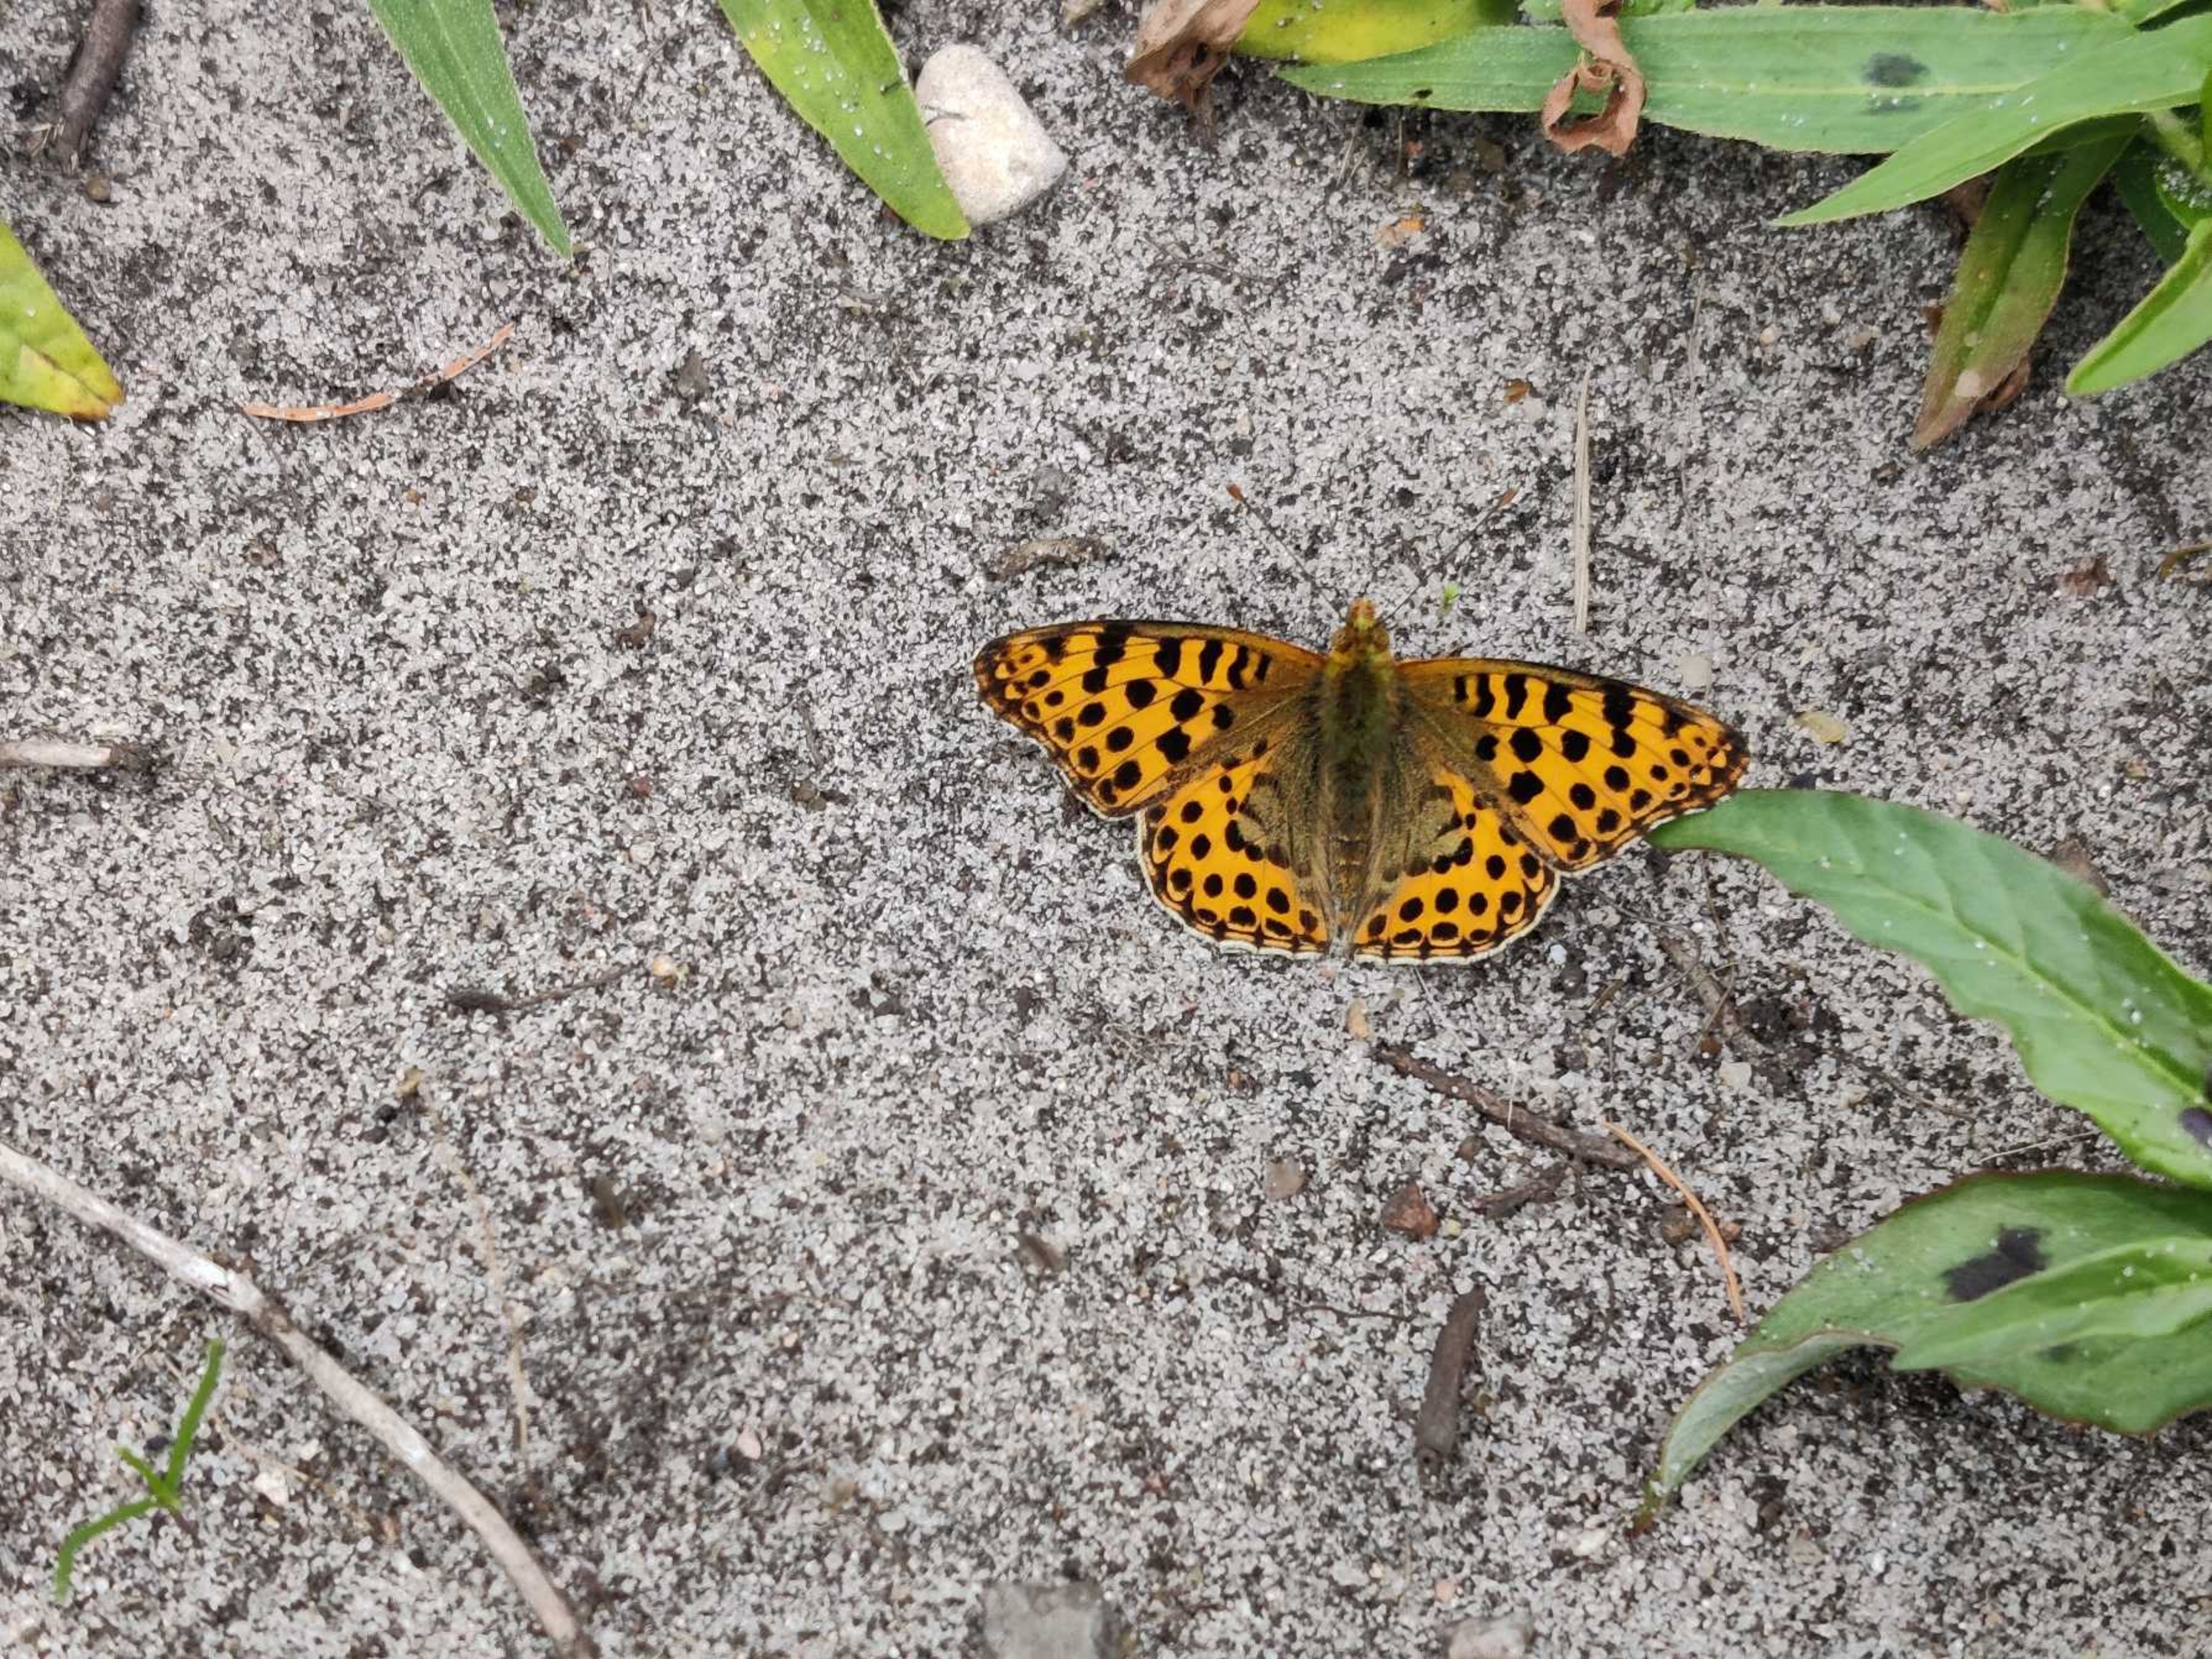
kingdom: Animalia
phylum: Arthropoda
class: Insecta
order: Lepidoptera
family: Nymphalidae
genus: Issoria
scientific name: Issoria lathonia
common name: Storplettet perlemorsommerfugl
